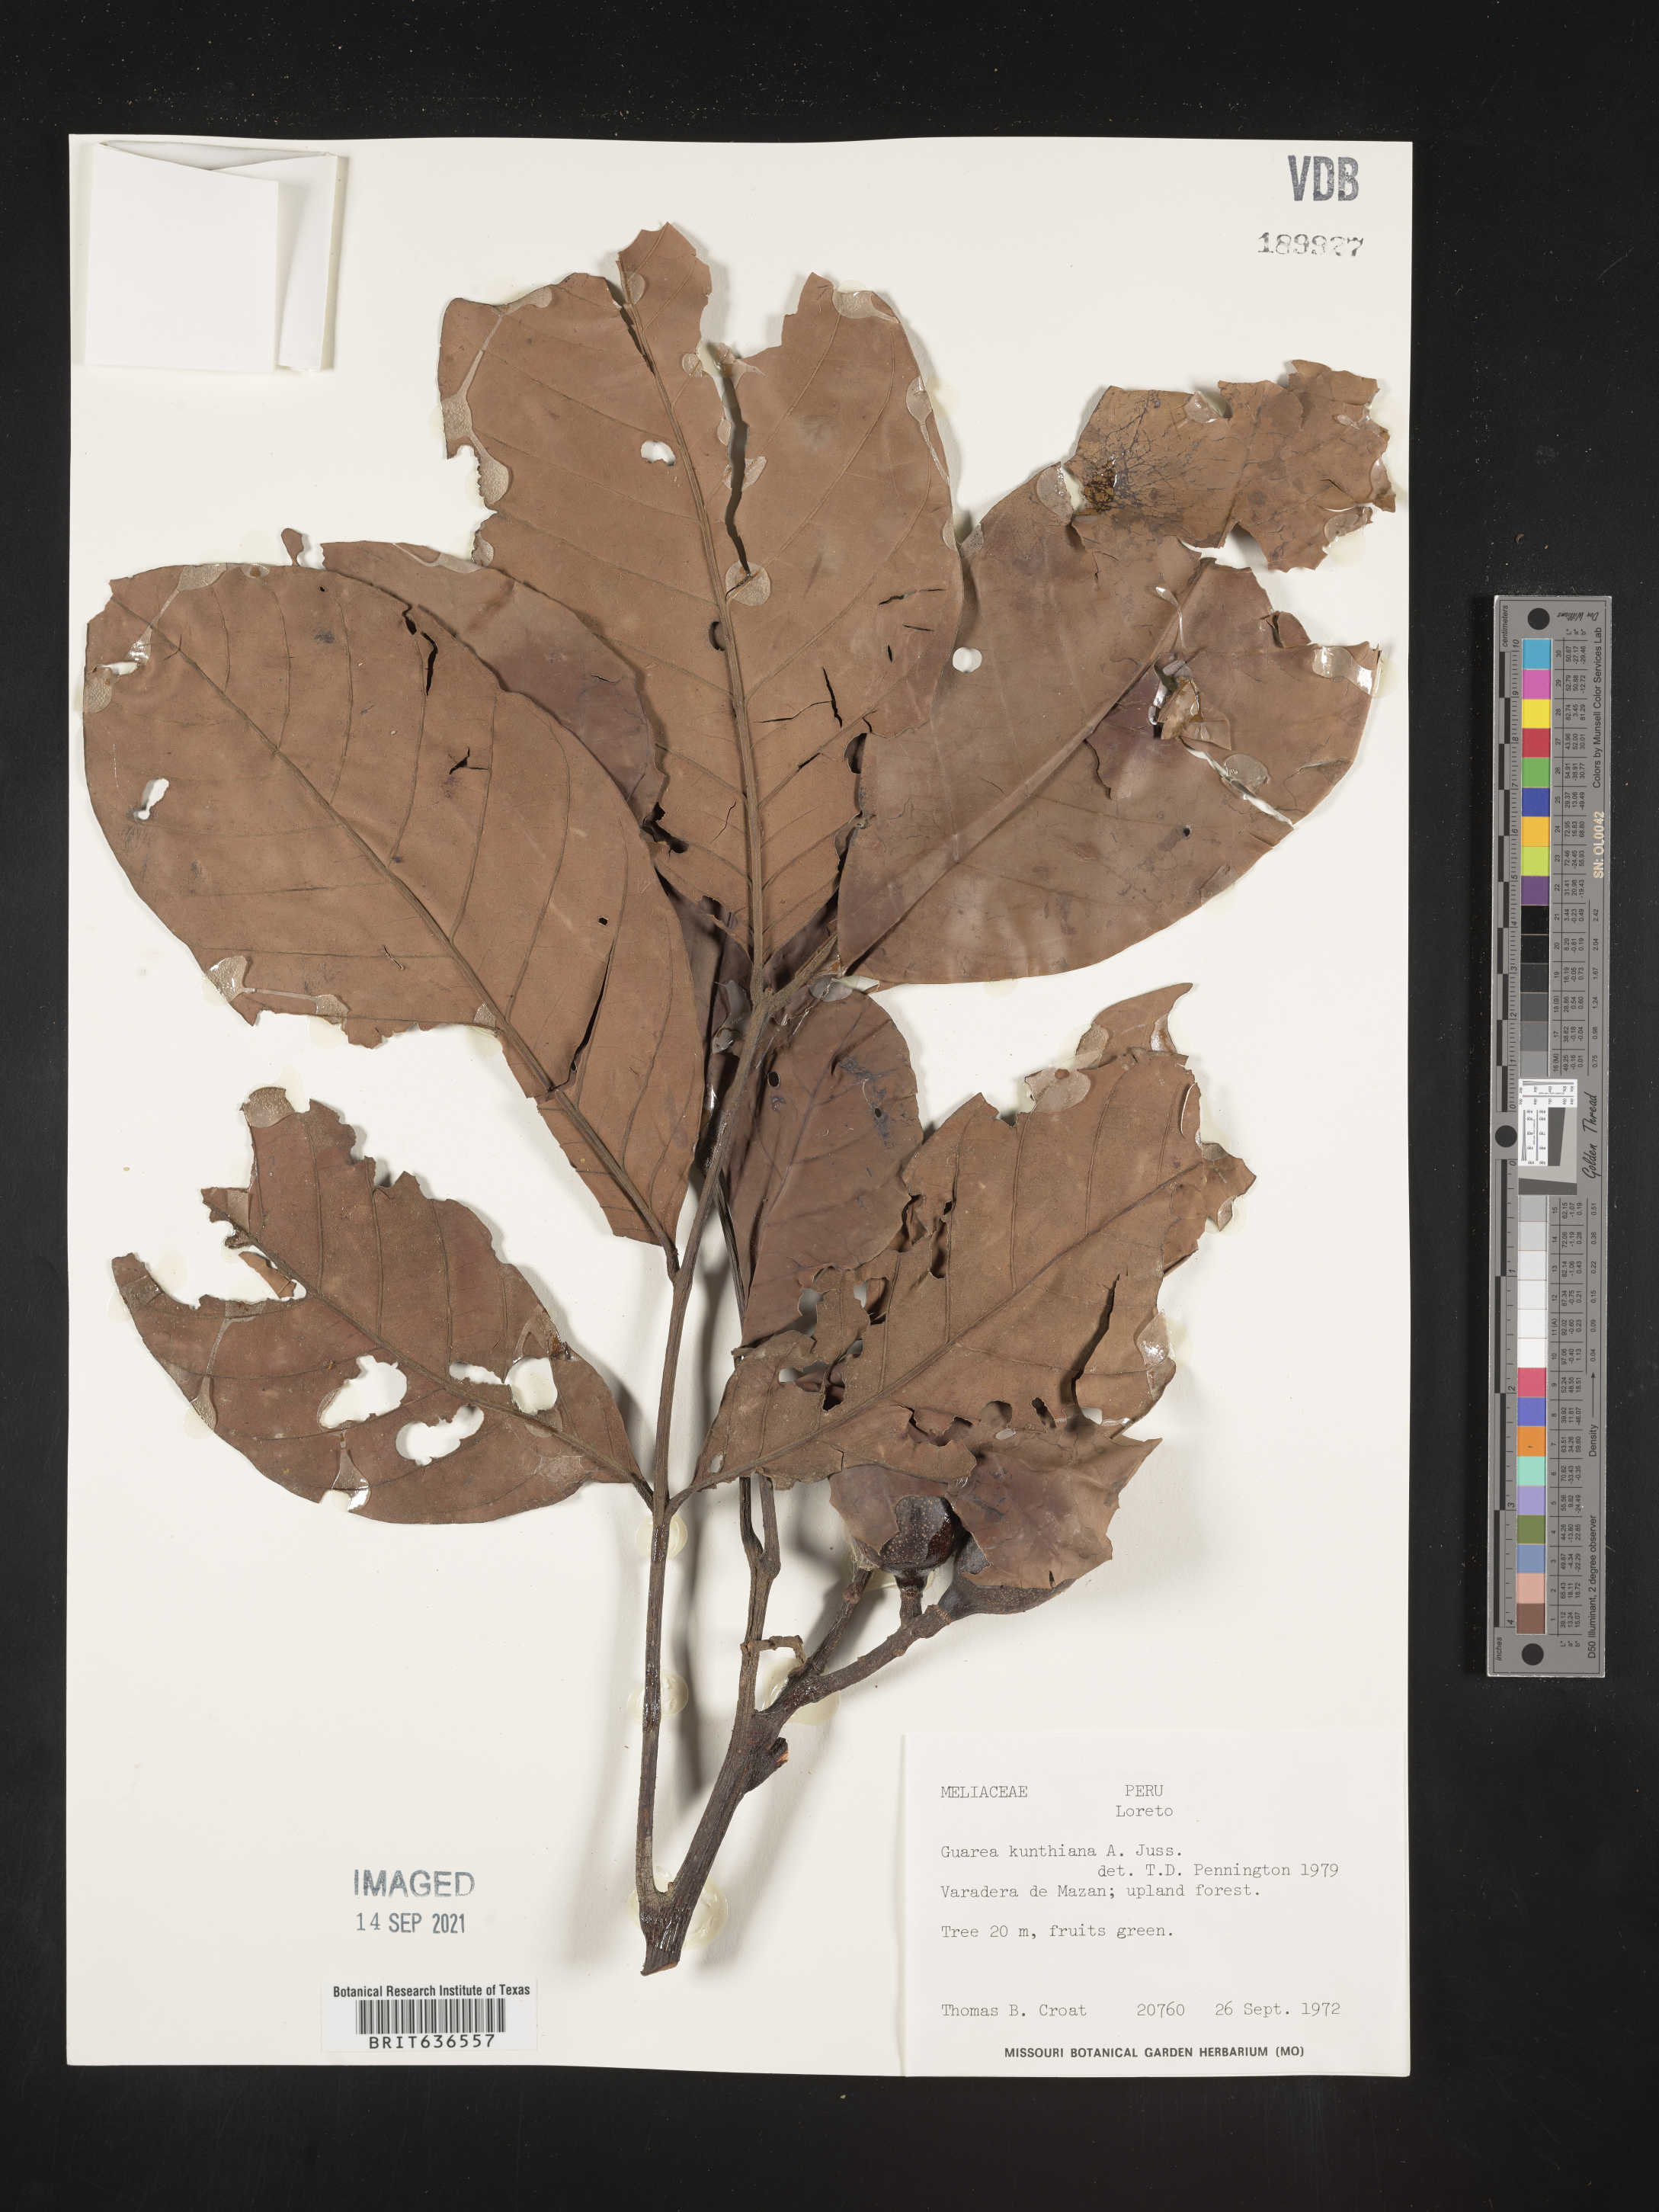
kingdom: Plantae
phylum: Tracheophyta
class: Magnoliopsida
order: Sapindales
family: Meliaceae
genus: Guarea
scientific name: Guarea
